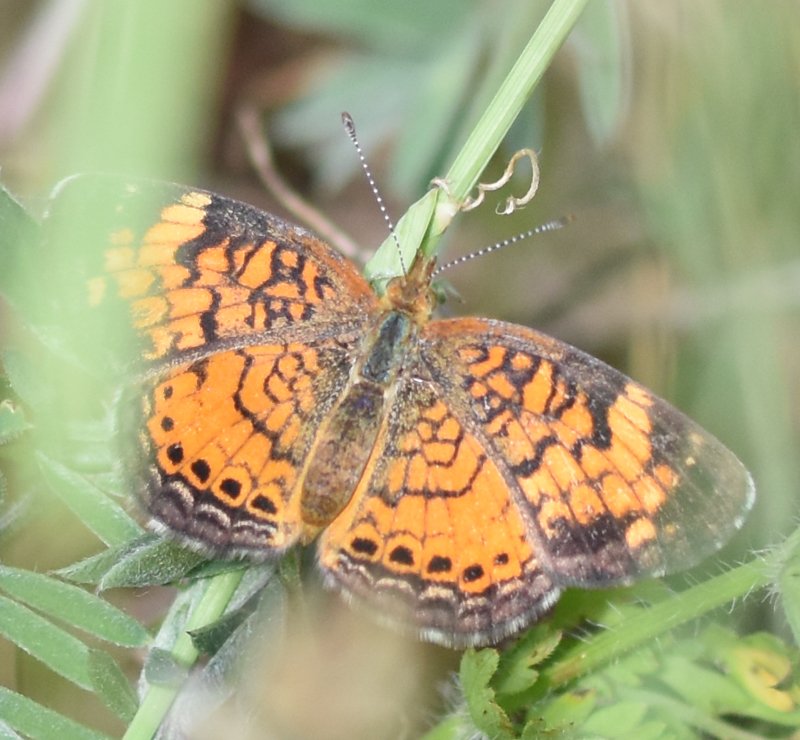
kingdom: Animalia
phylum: Arthropoda
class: Insecta
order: Lepidoptera
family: Nymphalidae
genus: Phyciodes
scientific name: Phyciodes tharos
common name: Northern Crescent
